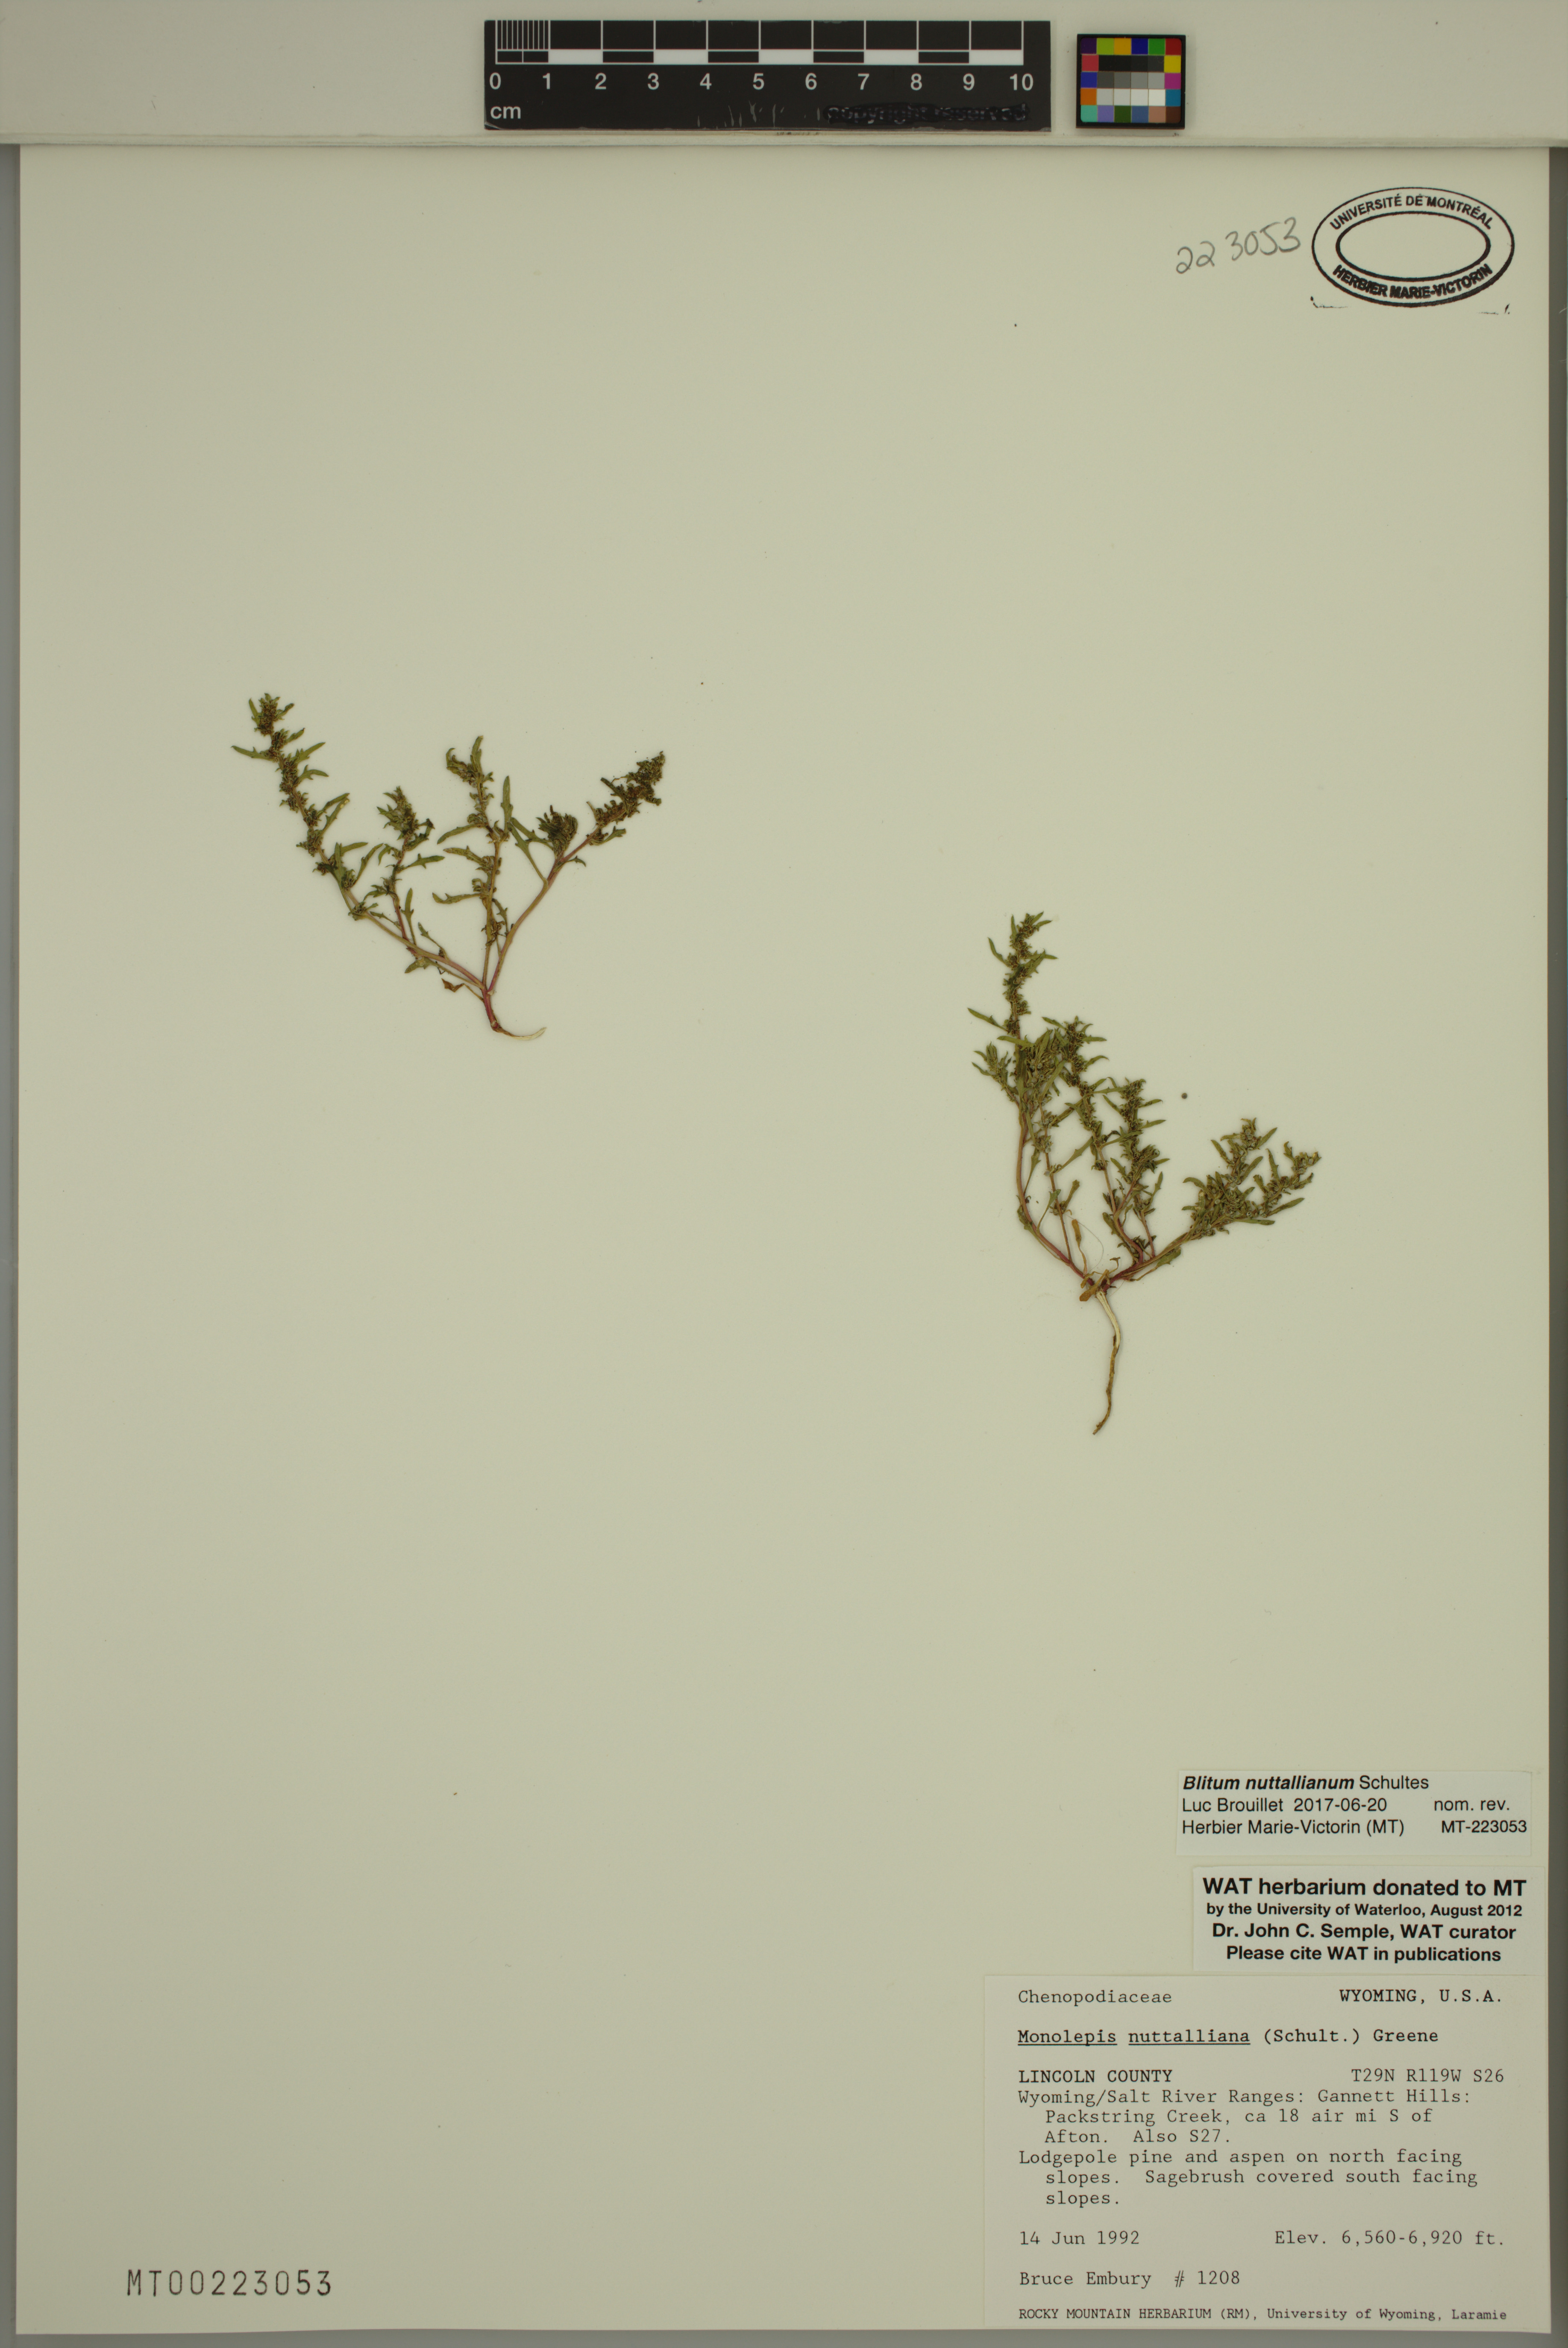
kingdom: Plantae
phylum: Tracheophyta
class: Magnoliopsida
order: Caryophyllales
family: Amaranthaceae
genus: Blitum
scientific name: Blitum nuttallianum
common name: Poverty-weed
